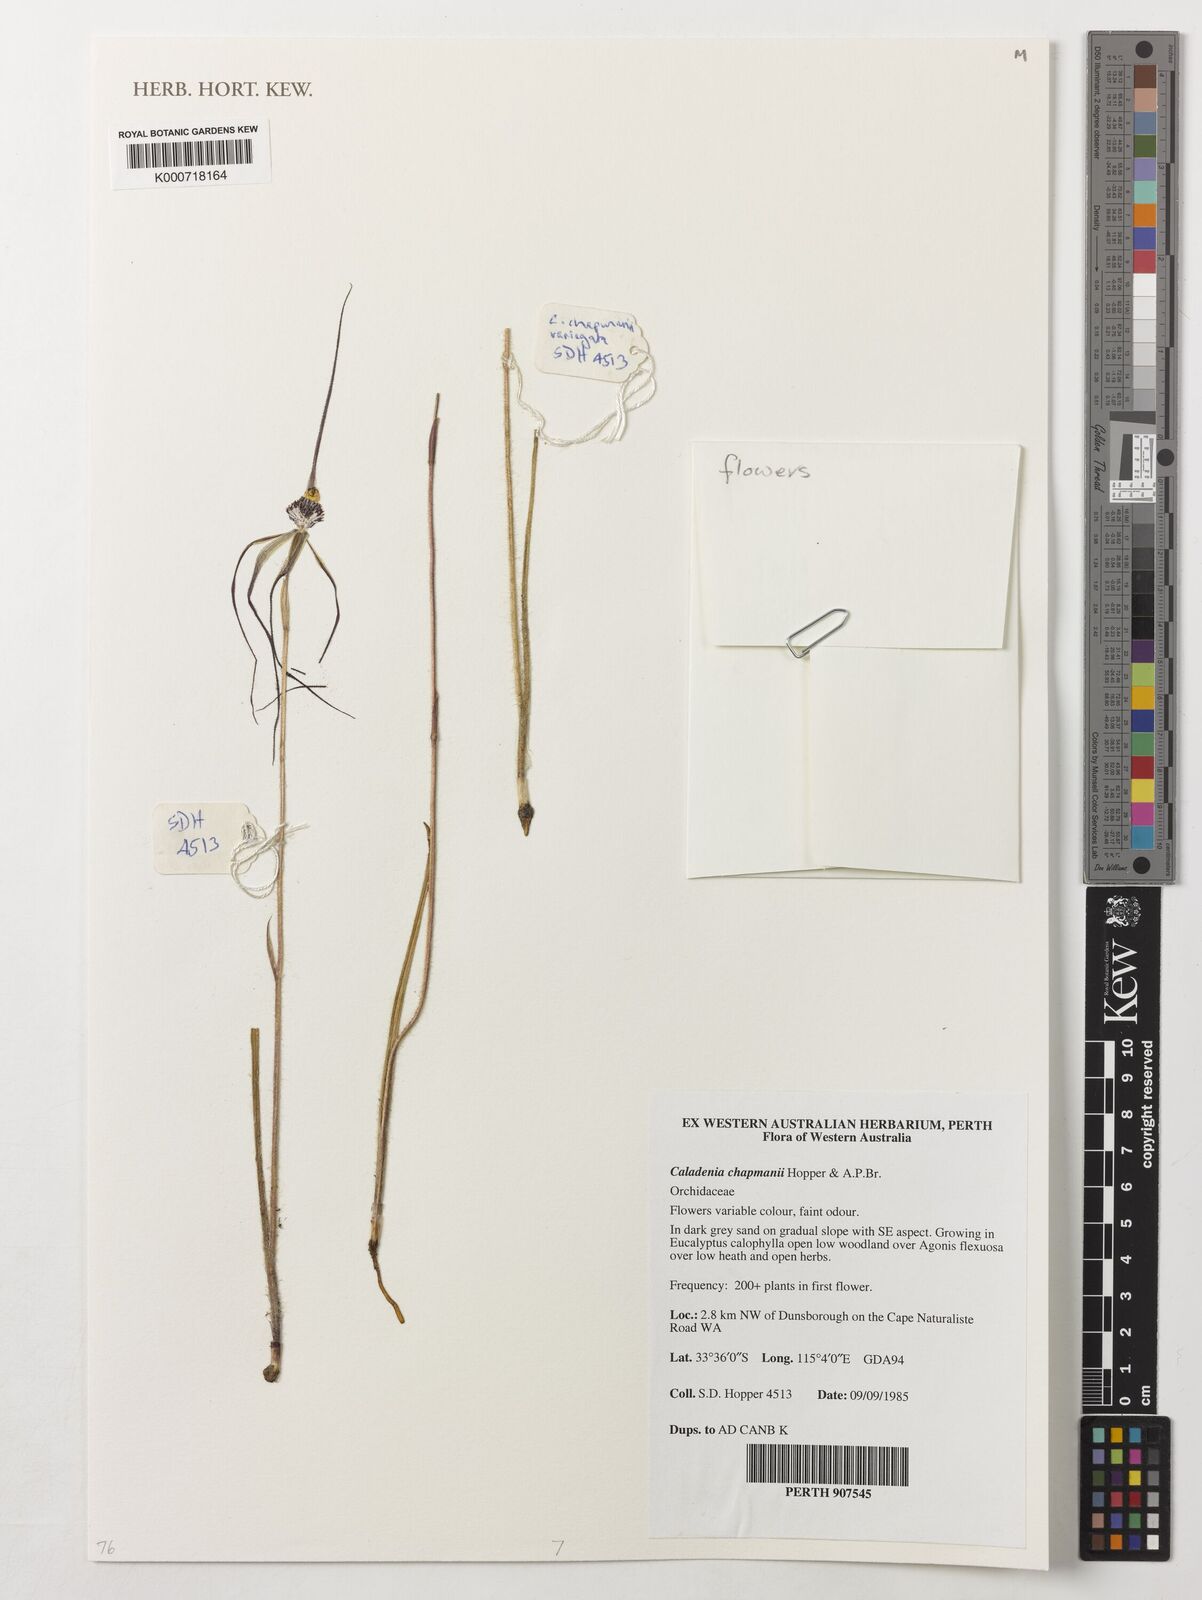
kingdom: Plantae
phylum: Tracheophyta
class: Liliopsida
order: Asparagales
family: Orchidaceae
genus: Caladenia
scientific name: Caladenia chapmanii
